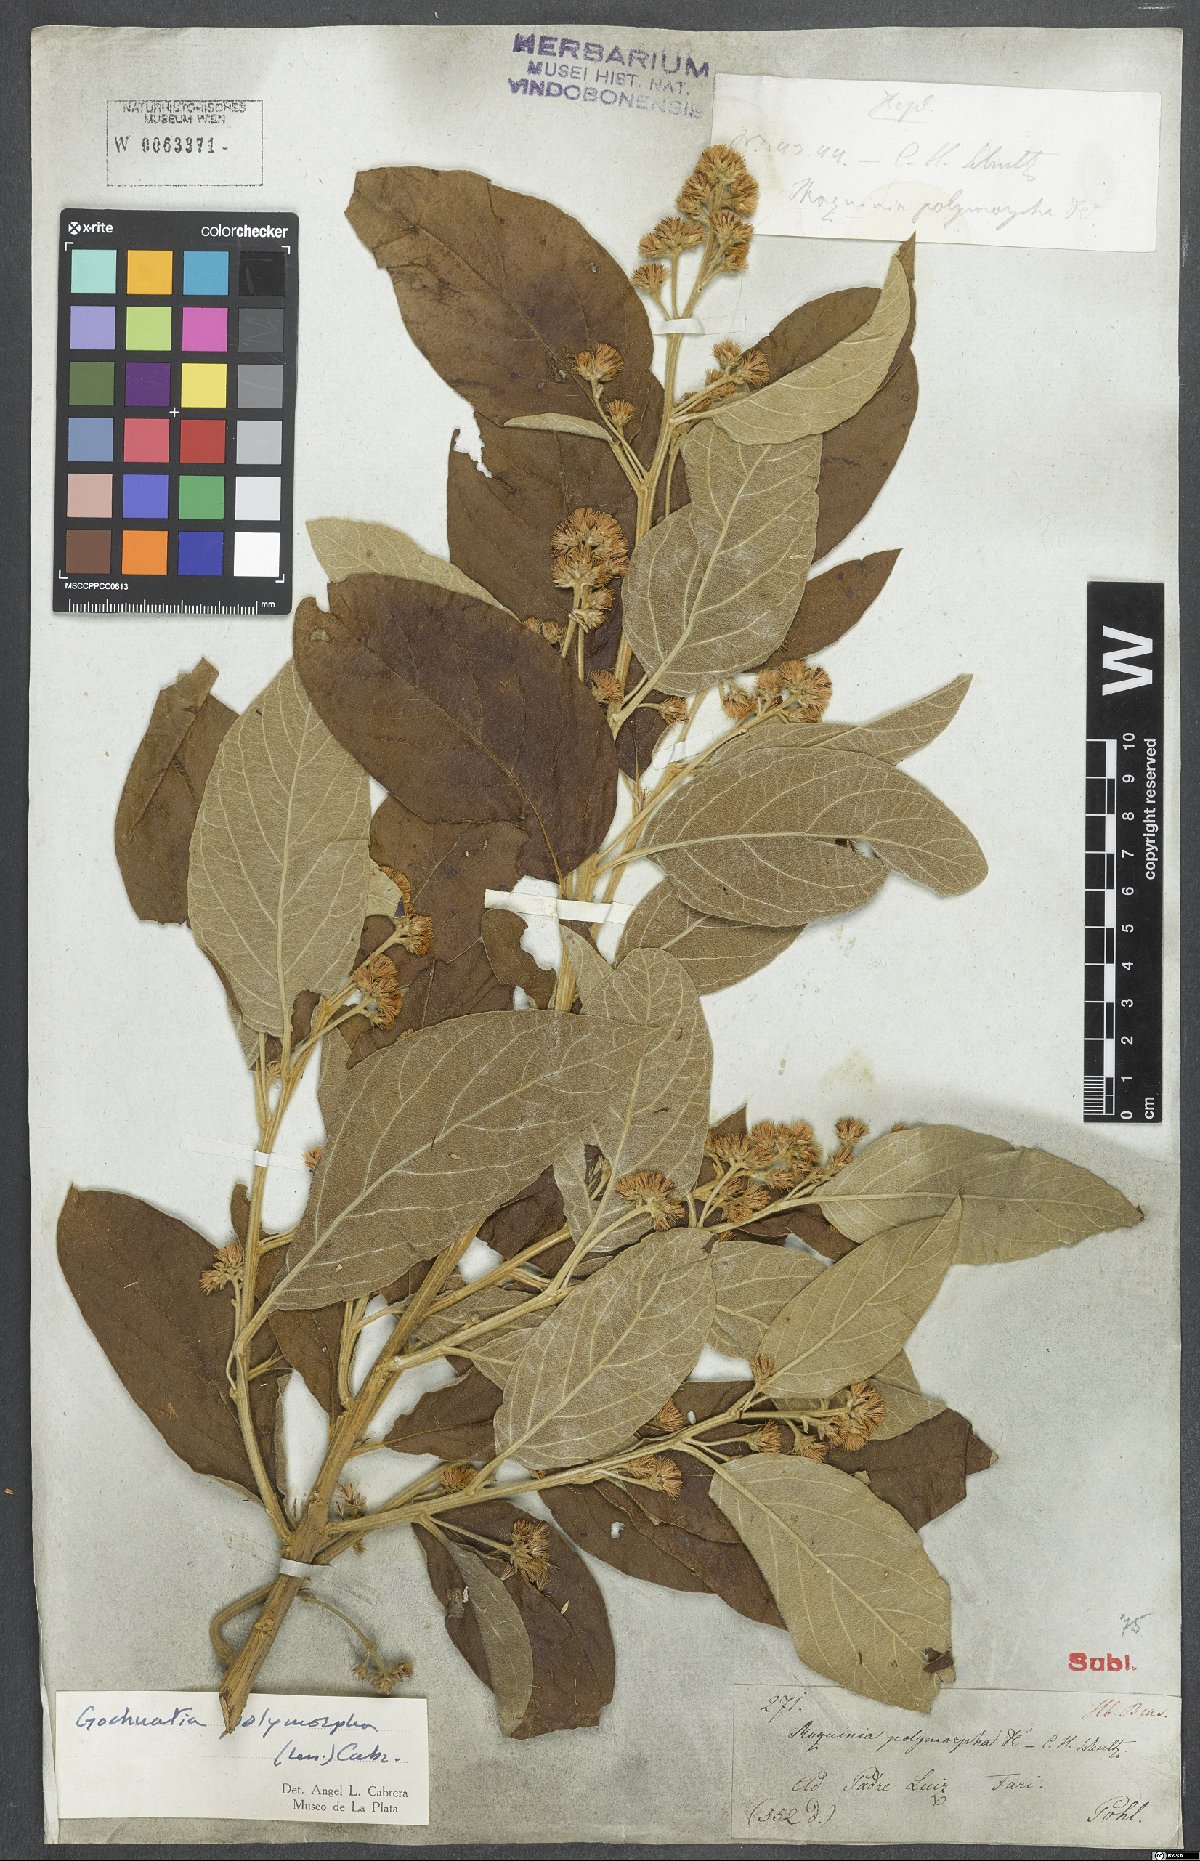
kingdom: Plantae
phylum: Tracheophyta
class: Magnoliopsida
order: Asterales
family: Asteraceae
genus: Moquiniastrum
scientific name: Moquiniastrum polymorphum
